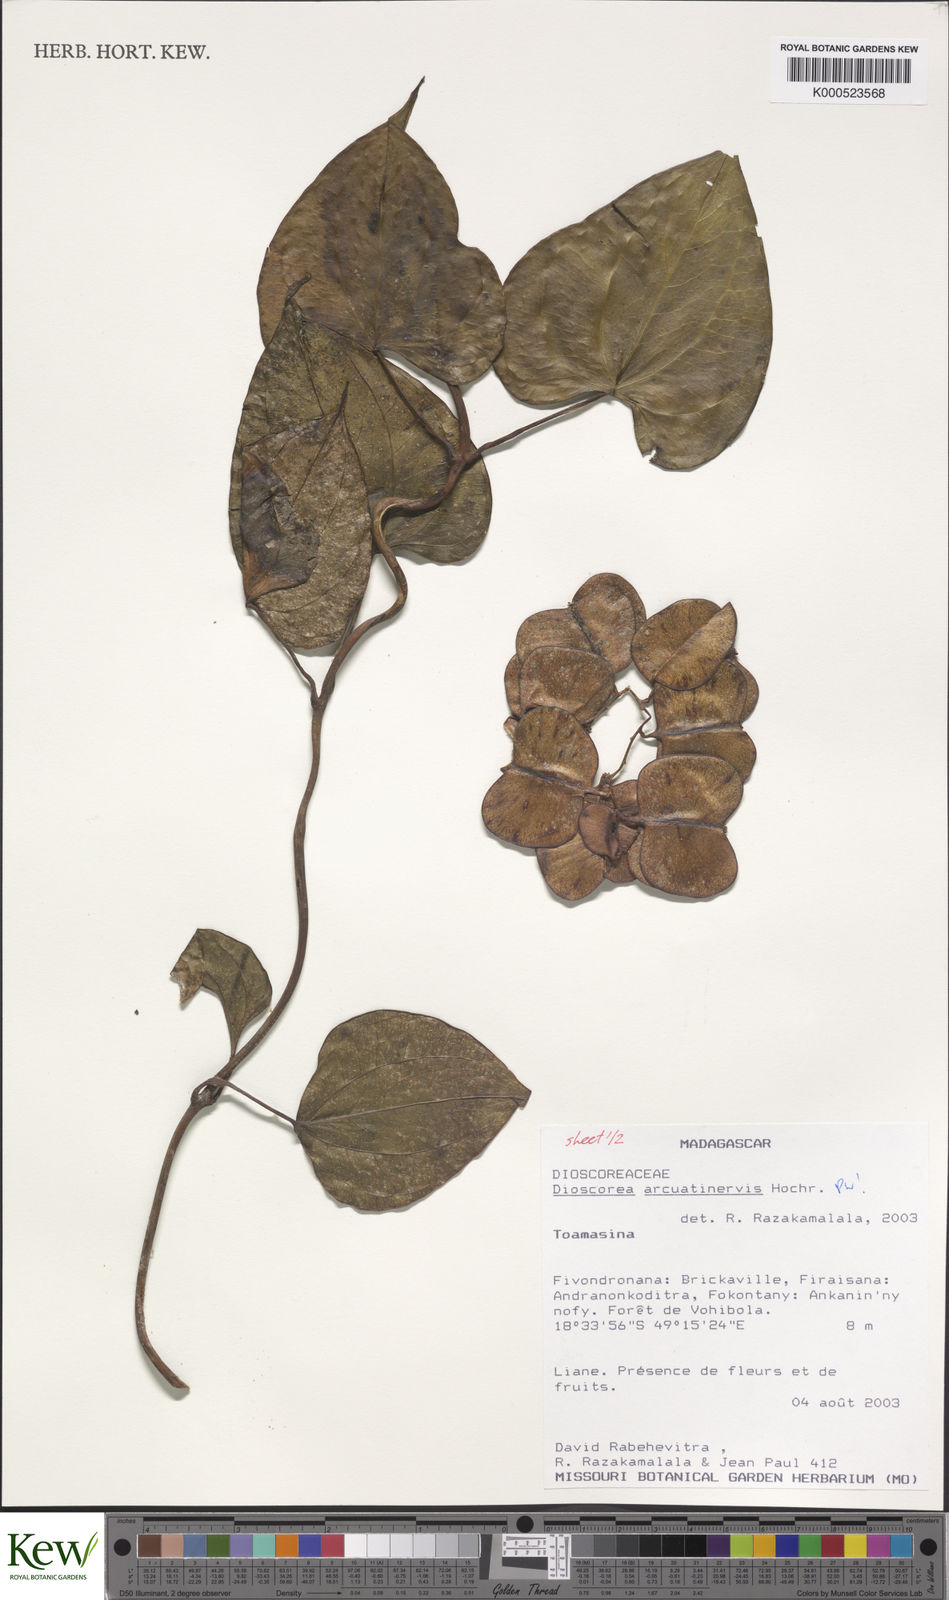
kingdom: Plantae
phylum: Tracheophyta
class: Liliopsida
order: Dioscoreales
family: Dioscoreaceae
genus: Dioscorea
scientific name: Dioscorea arcuatinervis
